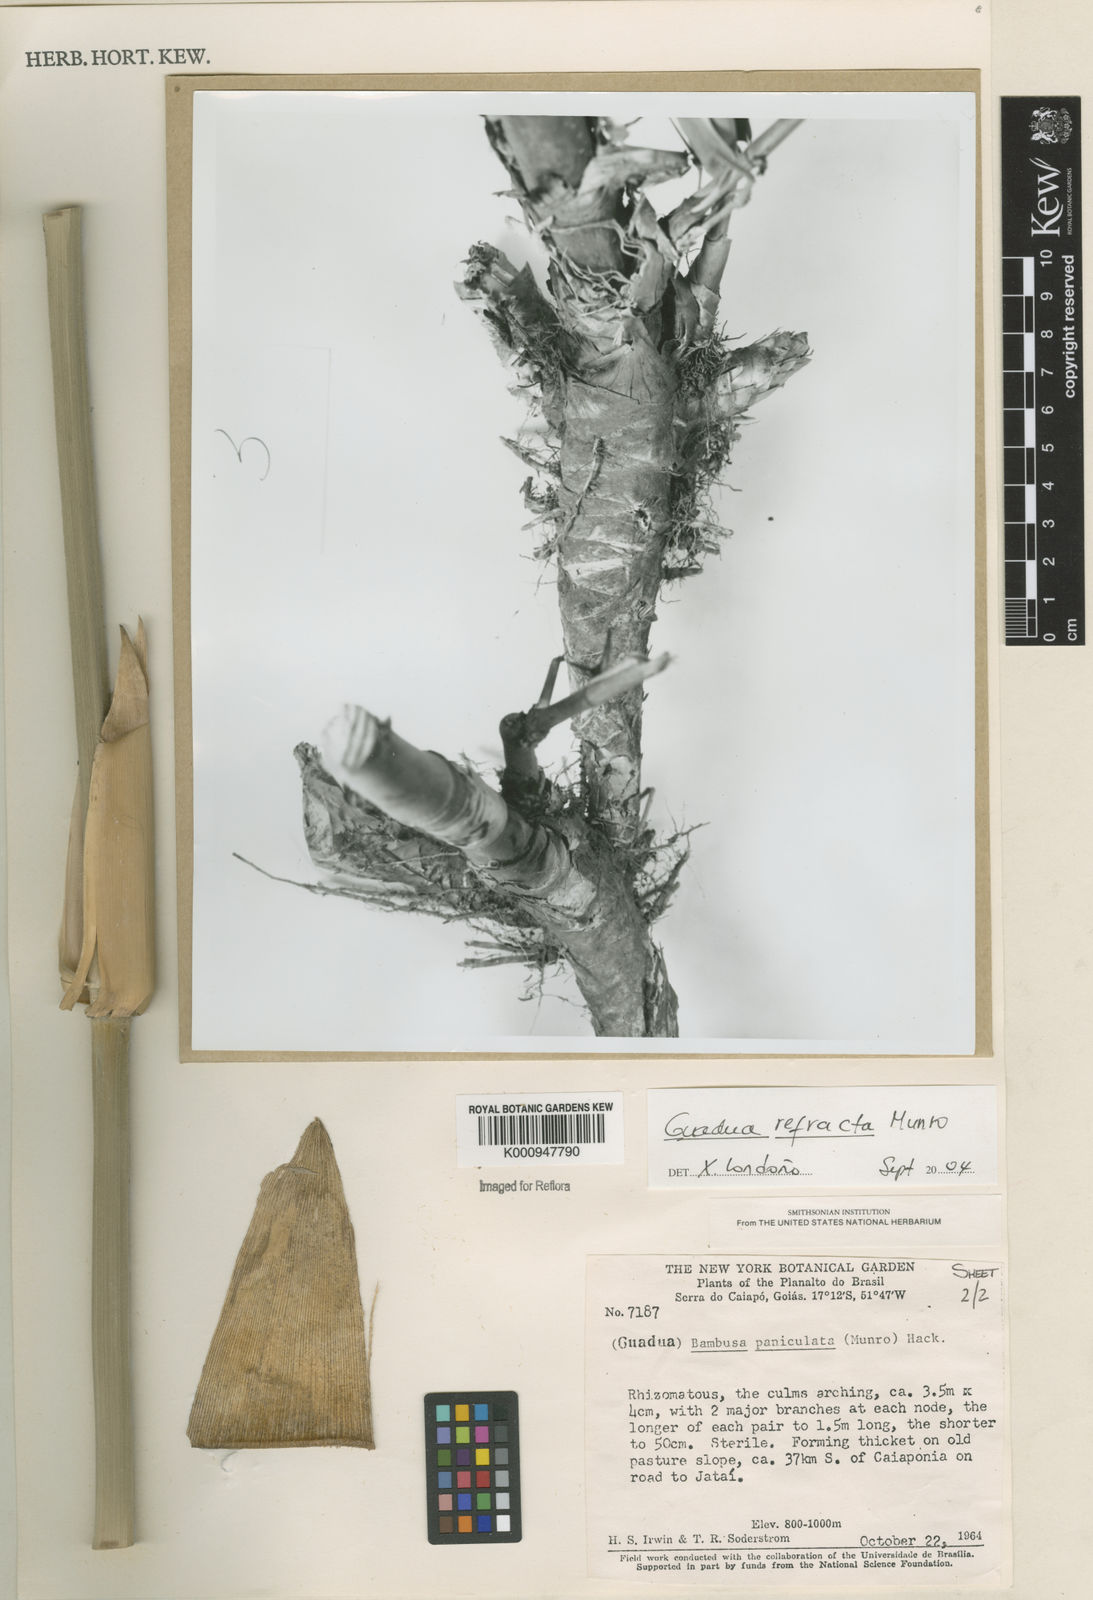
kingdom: Plantae
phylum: Tracheophyta
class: Liliopsida
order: Poales
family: Poaceae
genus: Guadua
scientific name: Guadua
